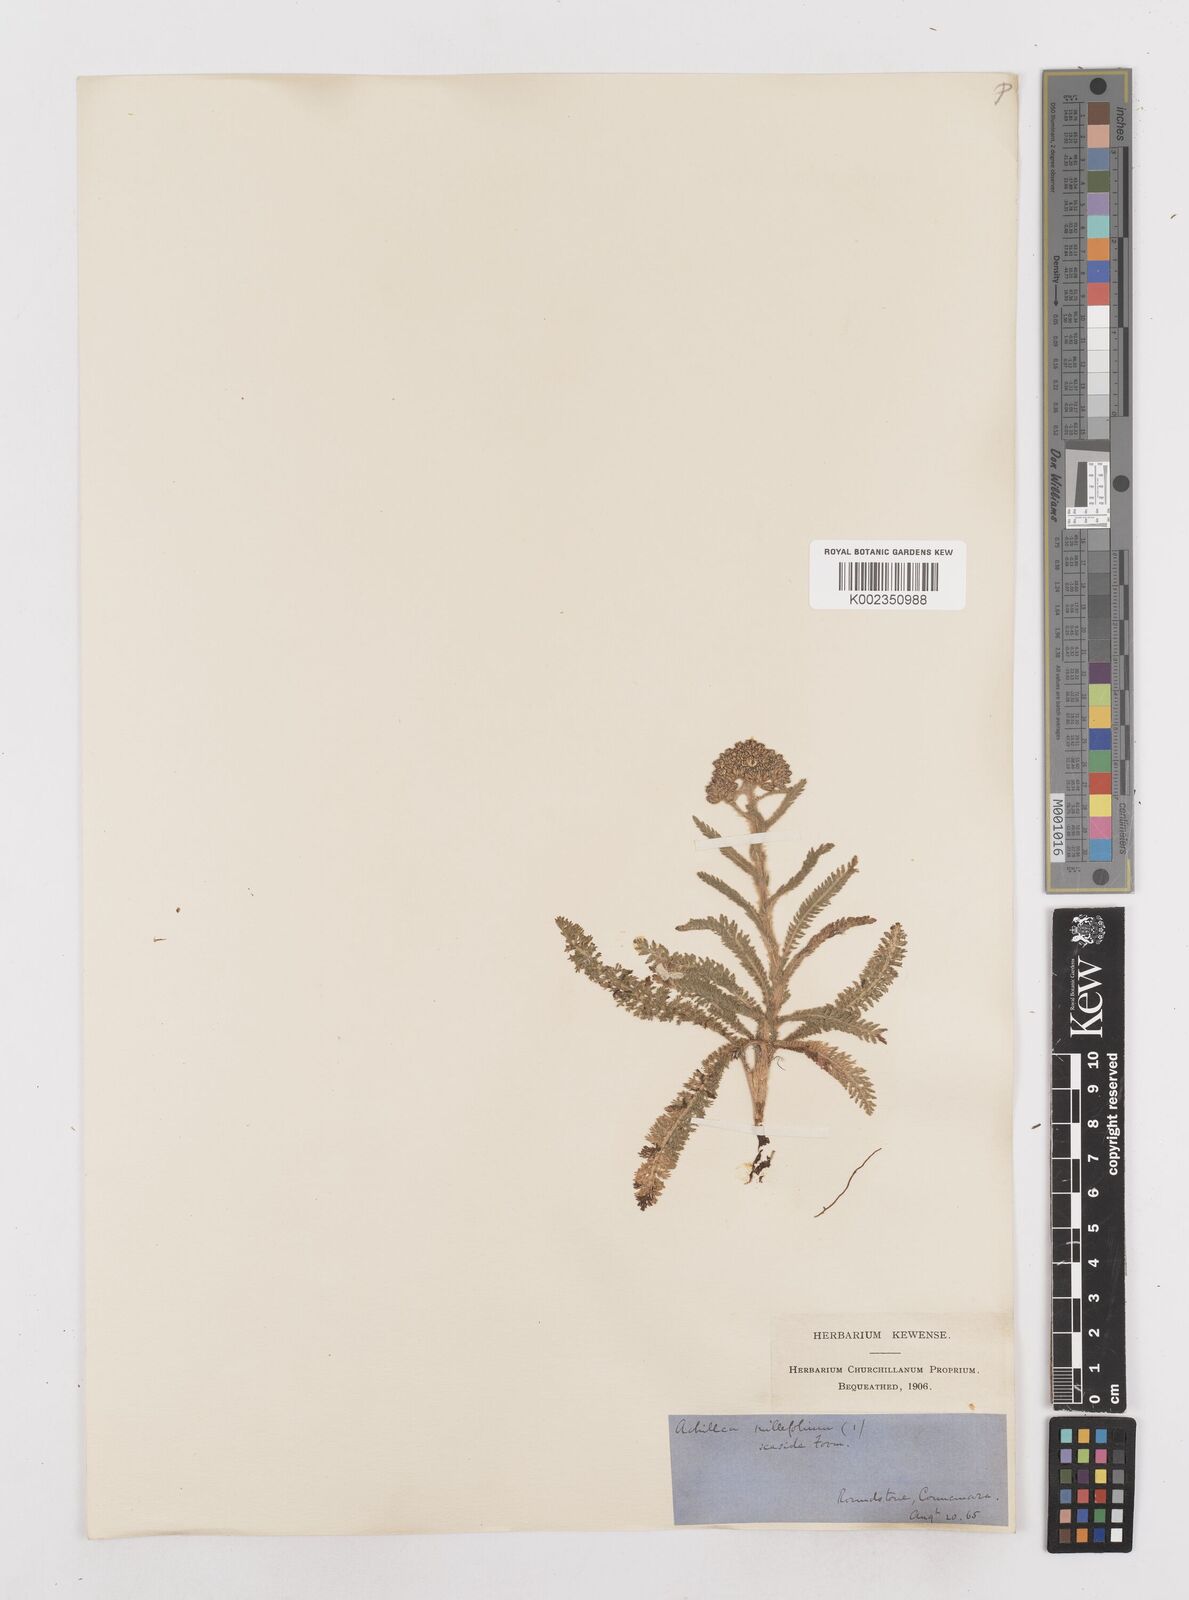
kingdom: Plantae
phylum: Tracheophyta
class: Magnoliopsida
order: Asterales
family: Asteraceae
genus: Achillea
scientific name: Achillea millefolium
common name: Yarrow
